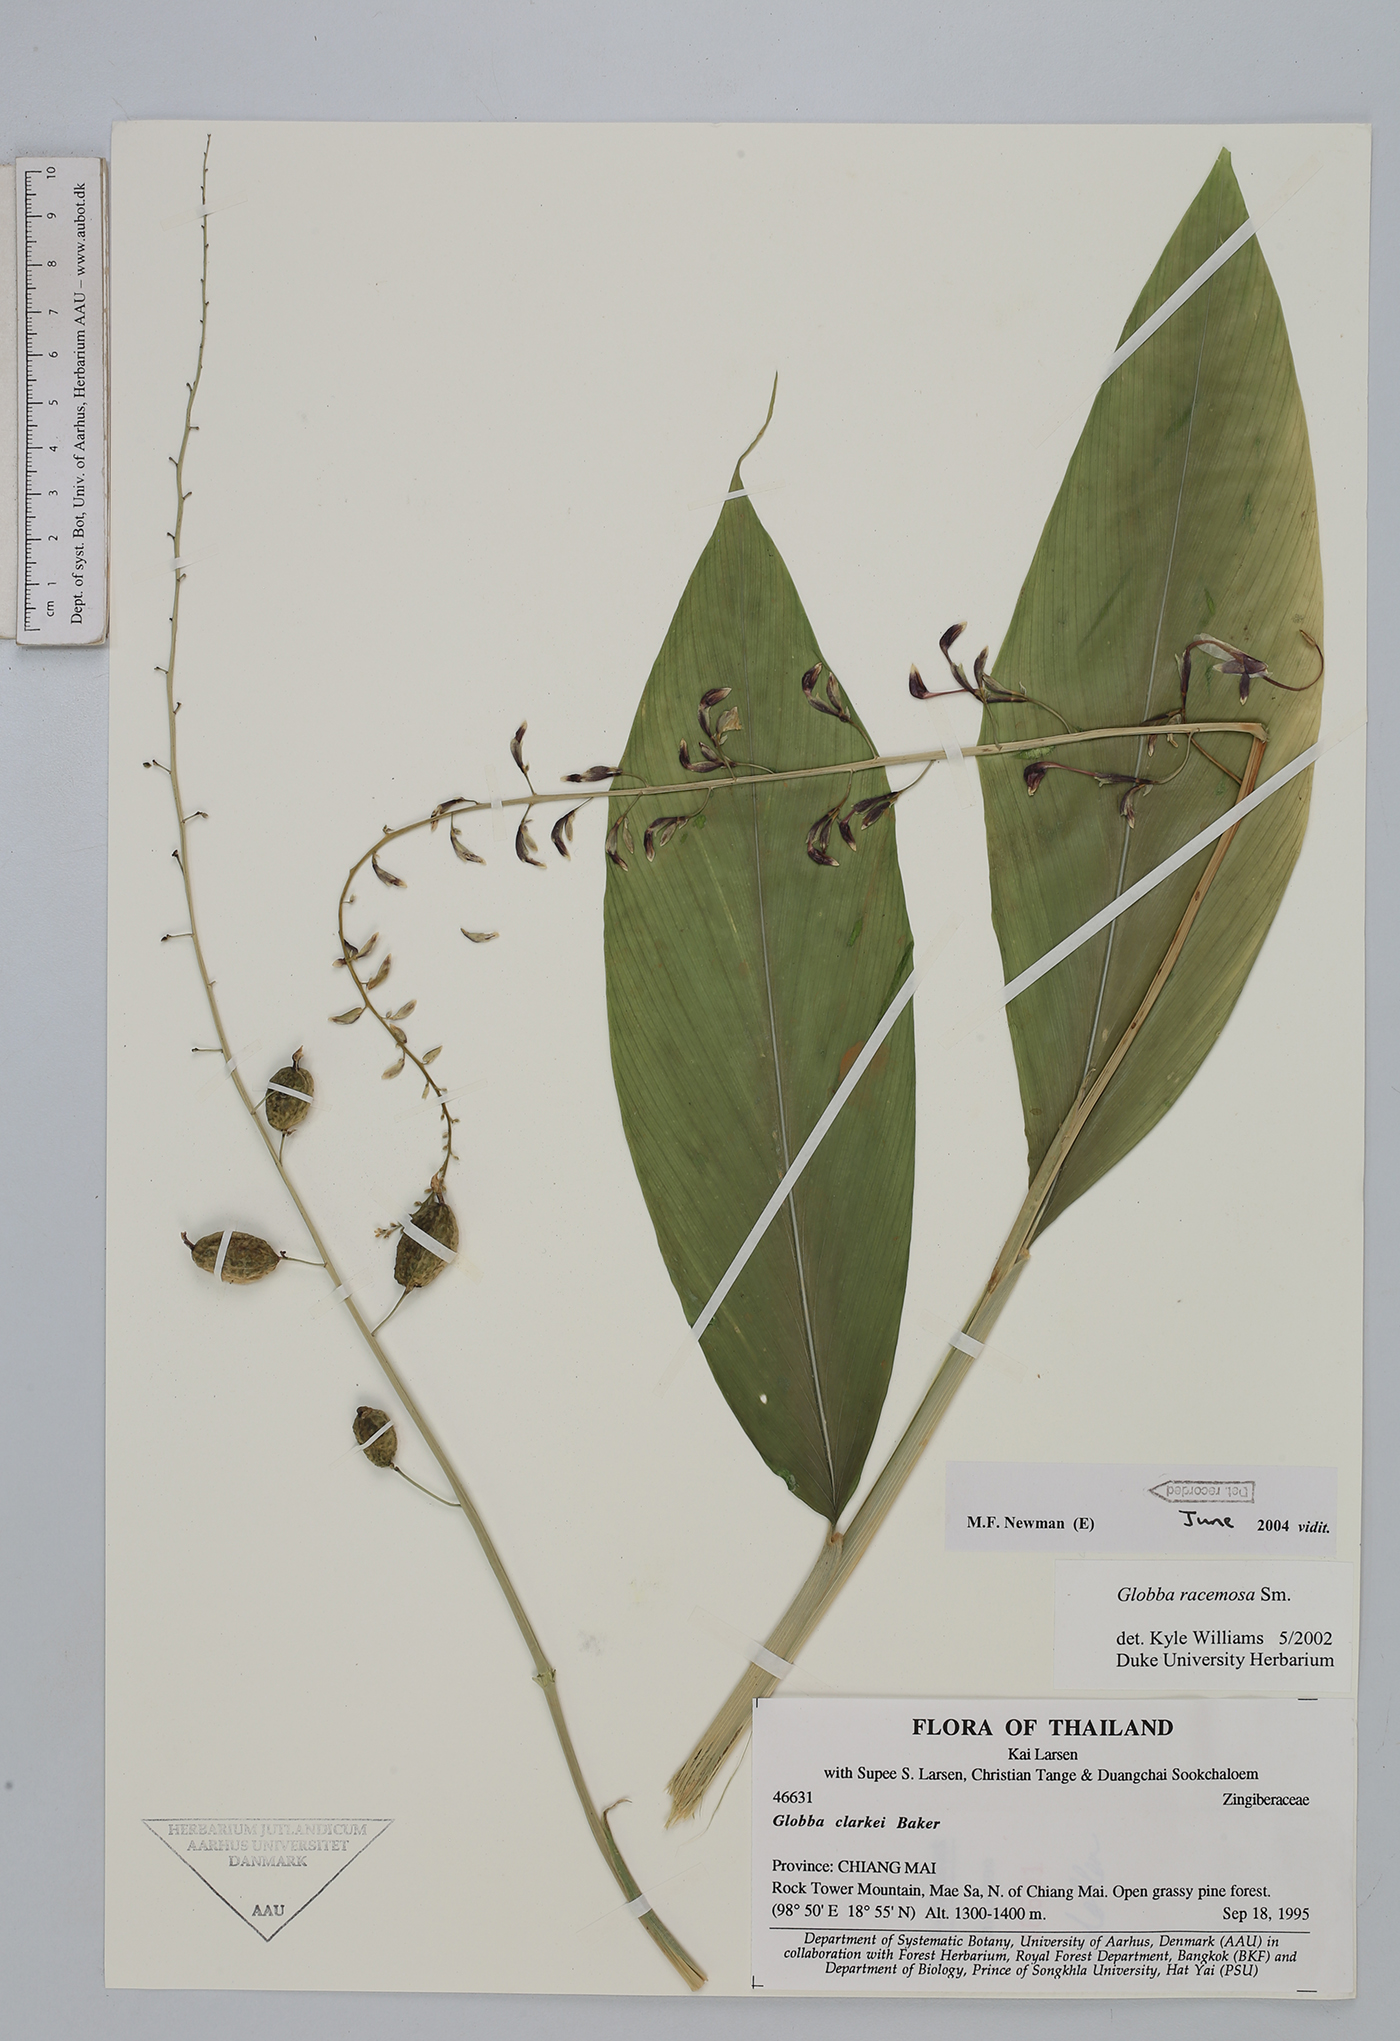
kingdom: Plantae
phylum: Tracheophyta
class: Liliopsida
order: Zingiberales
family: Zingiberaceae
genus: Globba
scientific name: Globba racemosa
